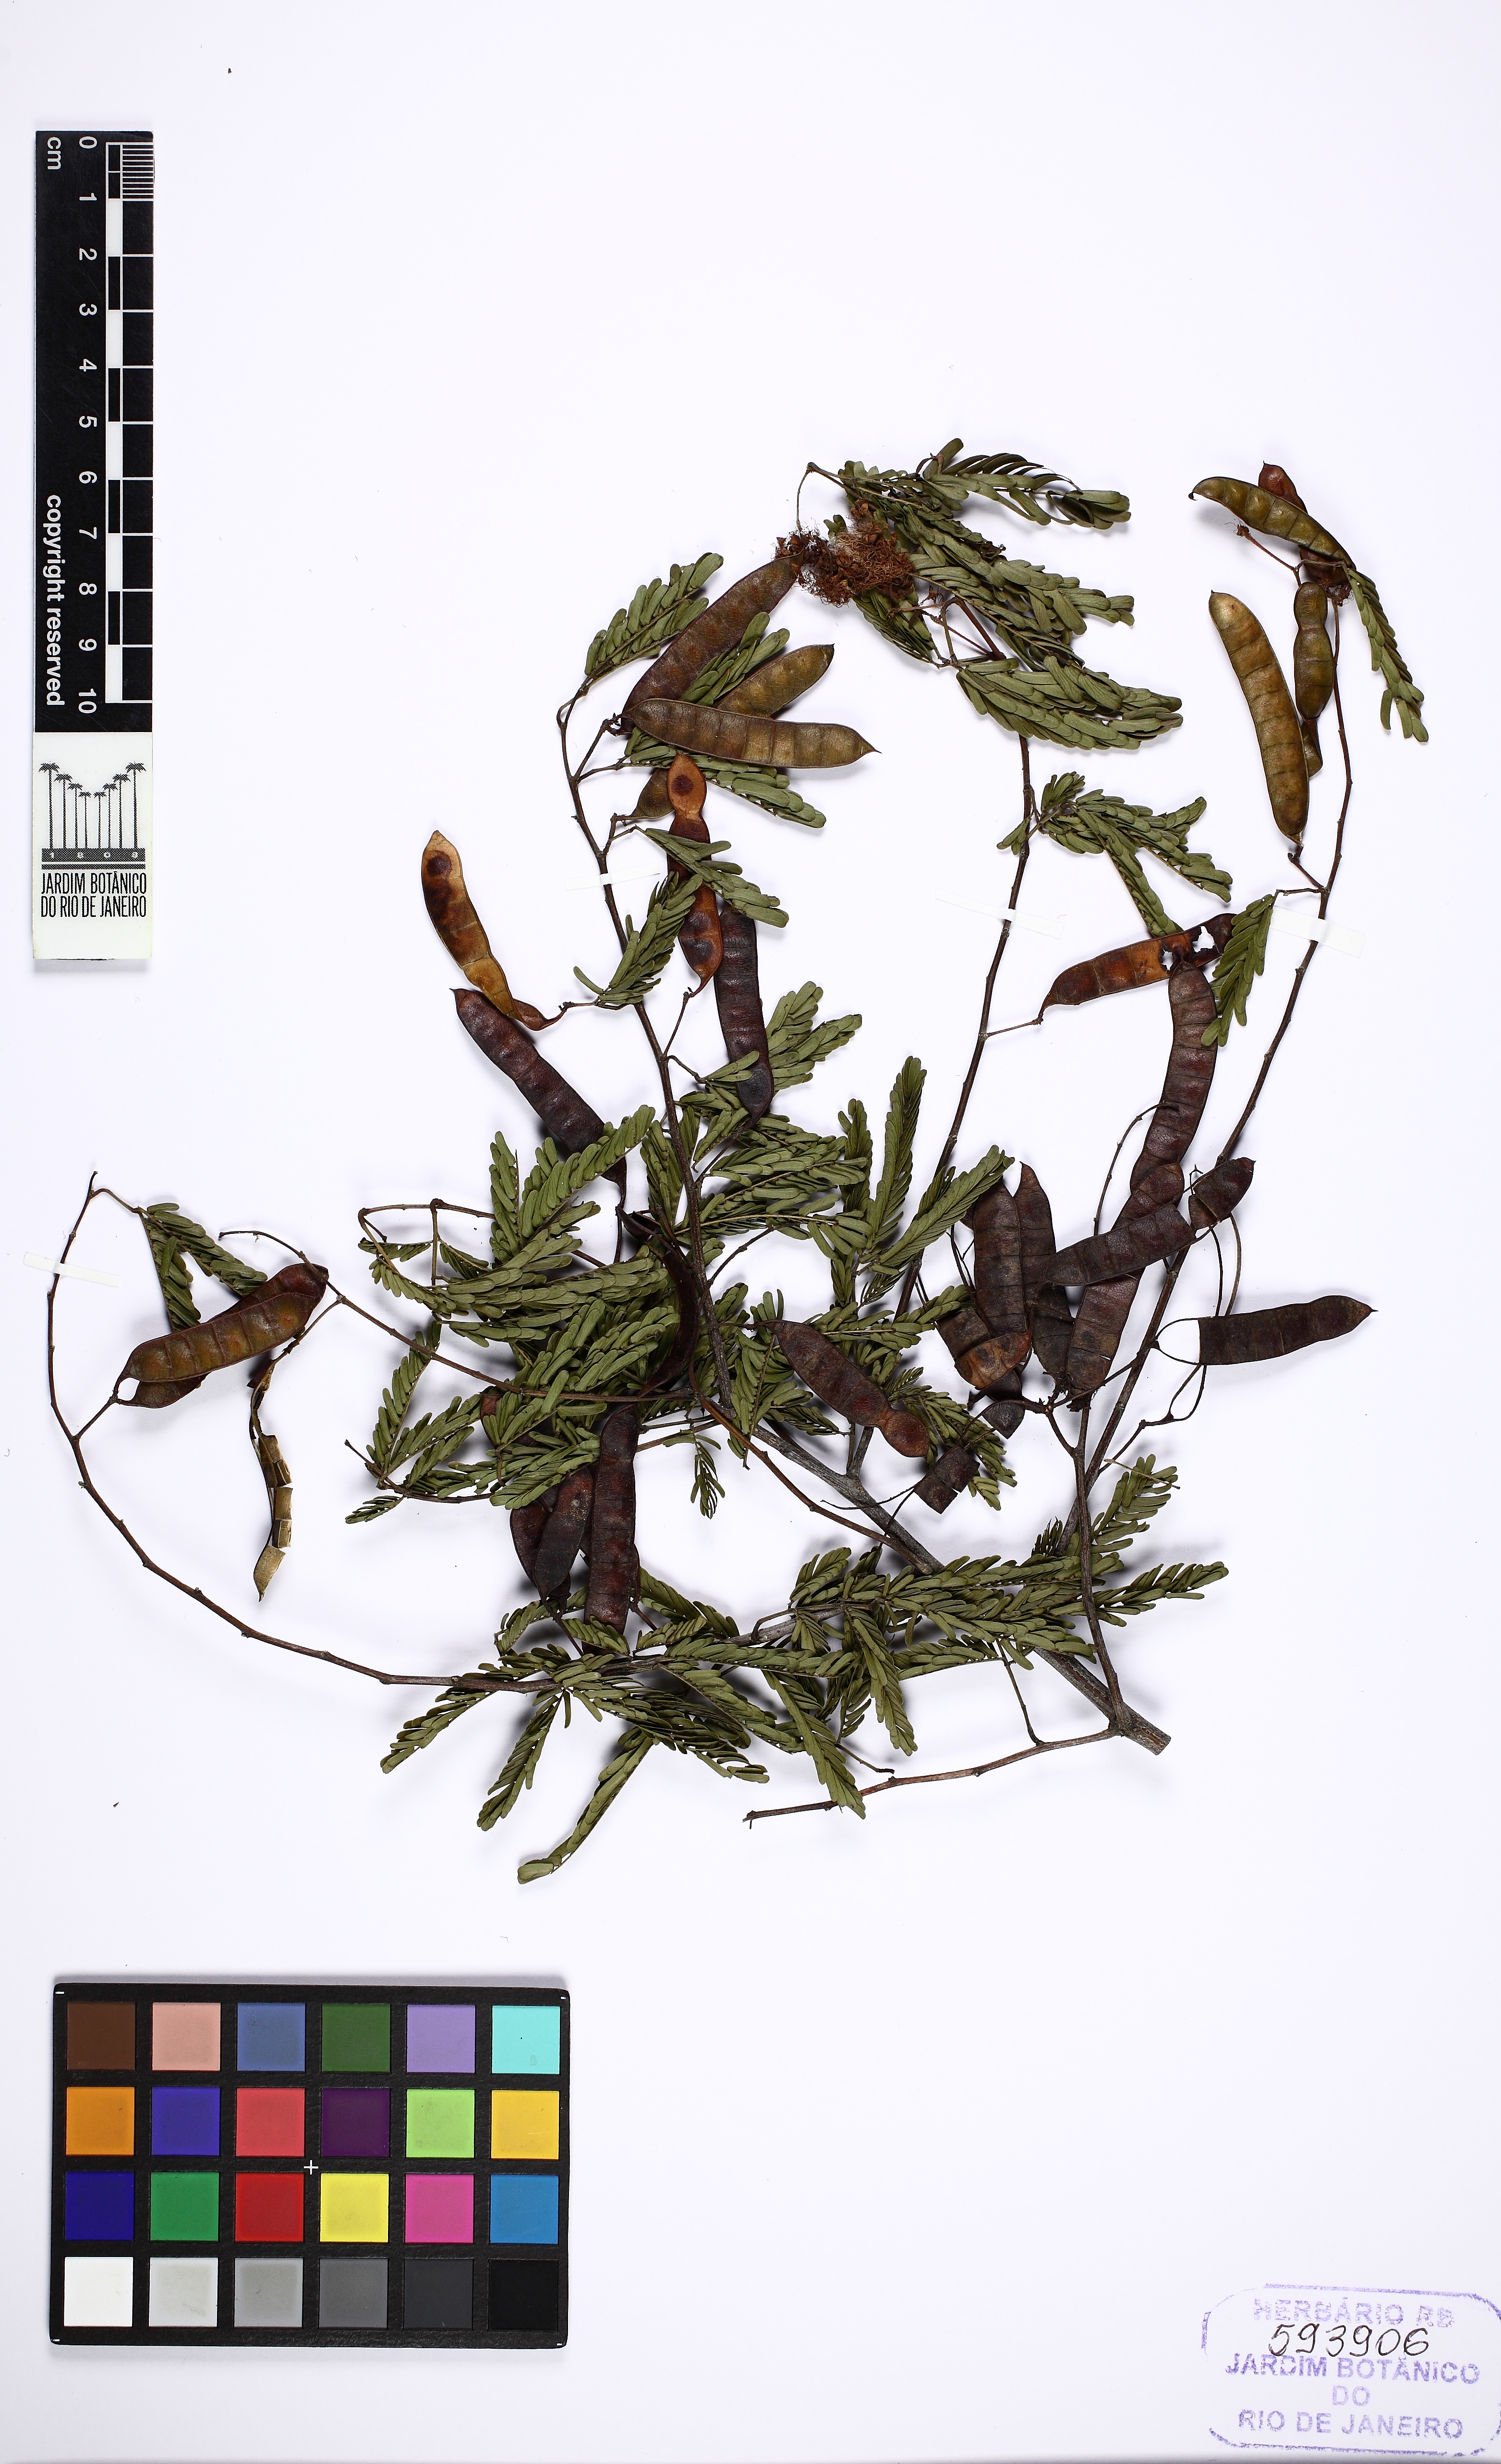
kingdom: Plantae
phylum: Tracheophyta
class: Magnoliopsida
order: Fabales
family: Fabaceae
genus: Mimosa
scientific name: Mimosa bimucronata
